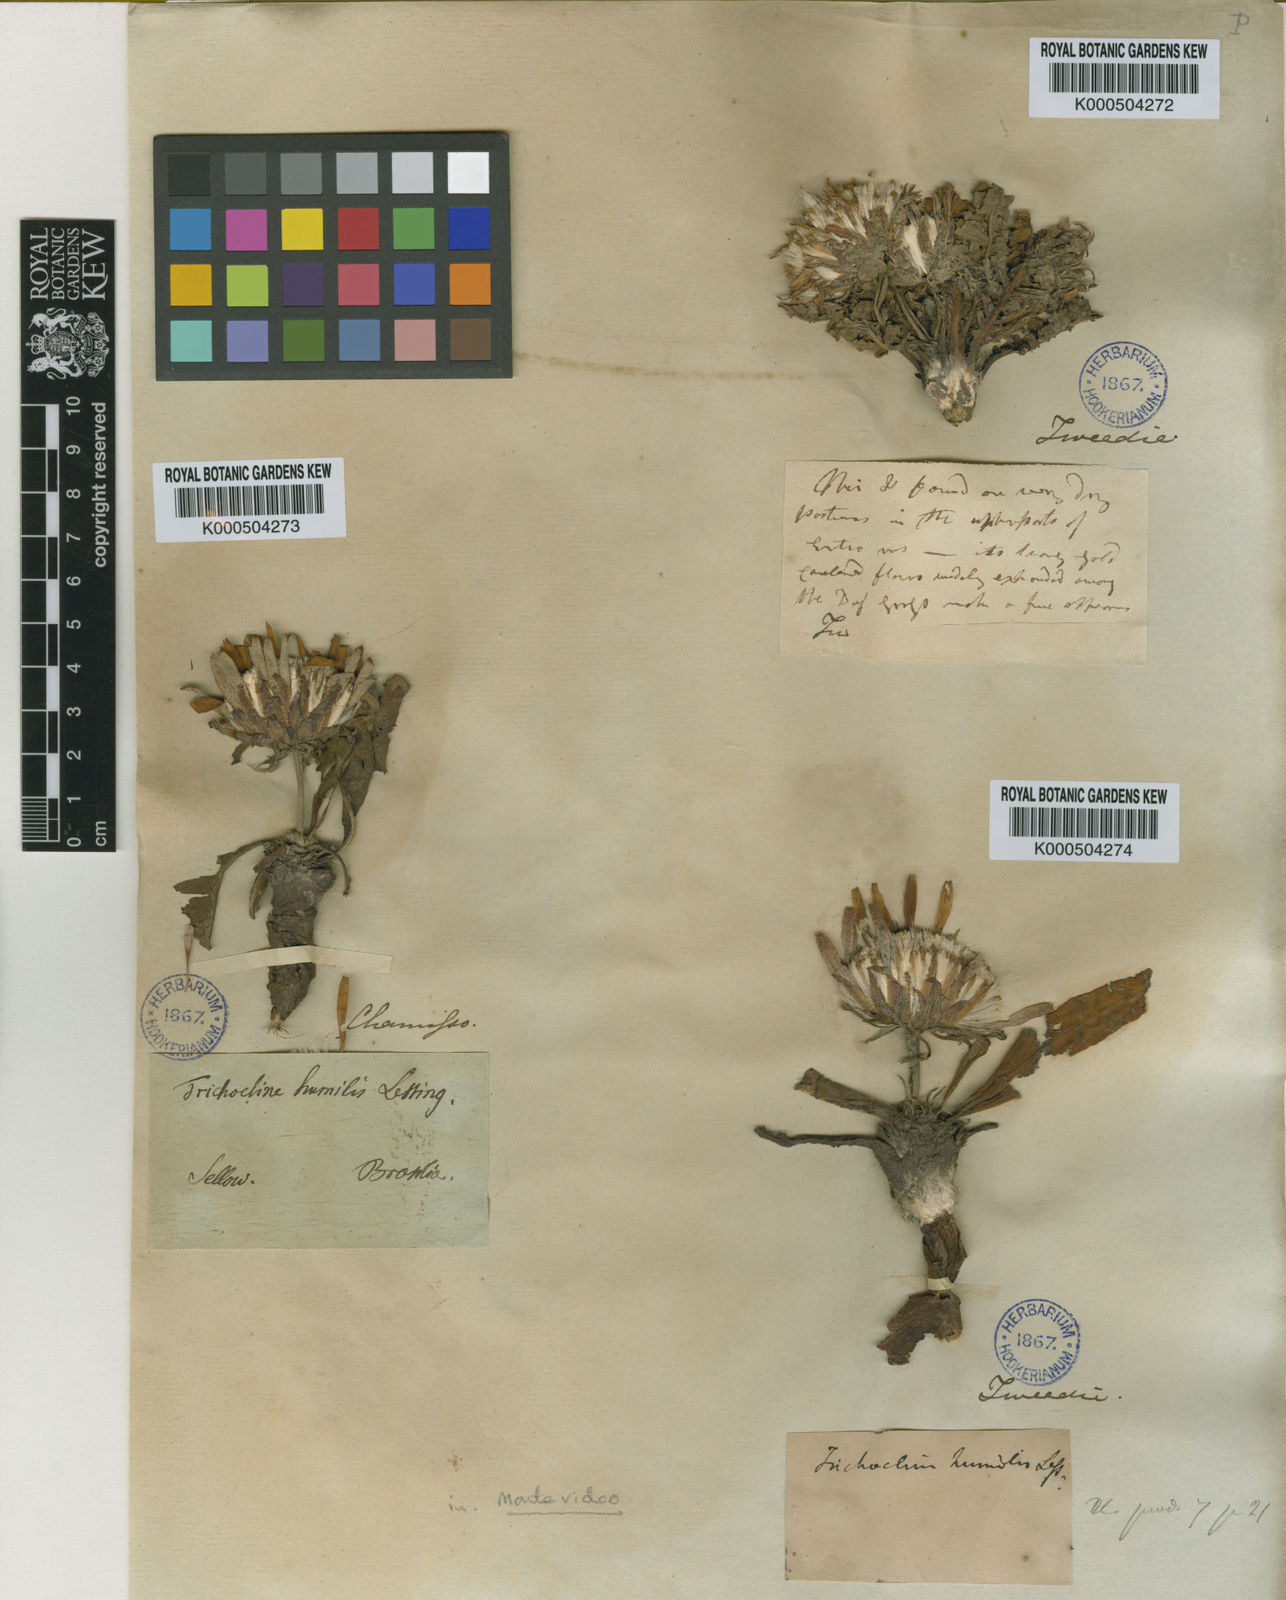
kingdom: Plantae
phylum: Tracheophyta
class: Magnoliopsida
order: Asterales
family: Asteraceae
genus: Trichocline
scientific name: Trichocline humilis
